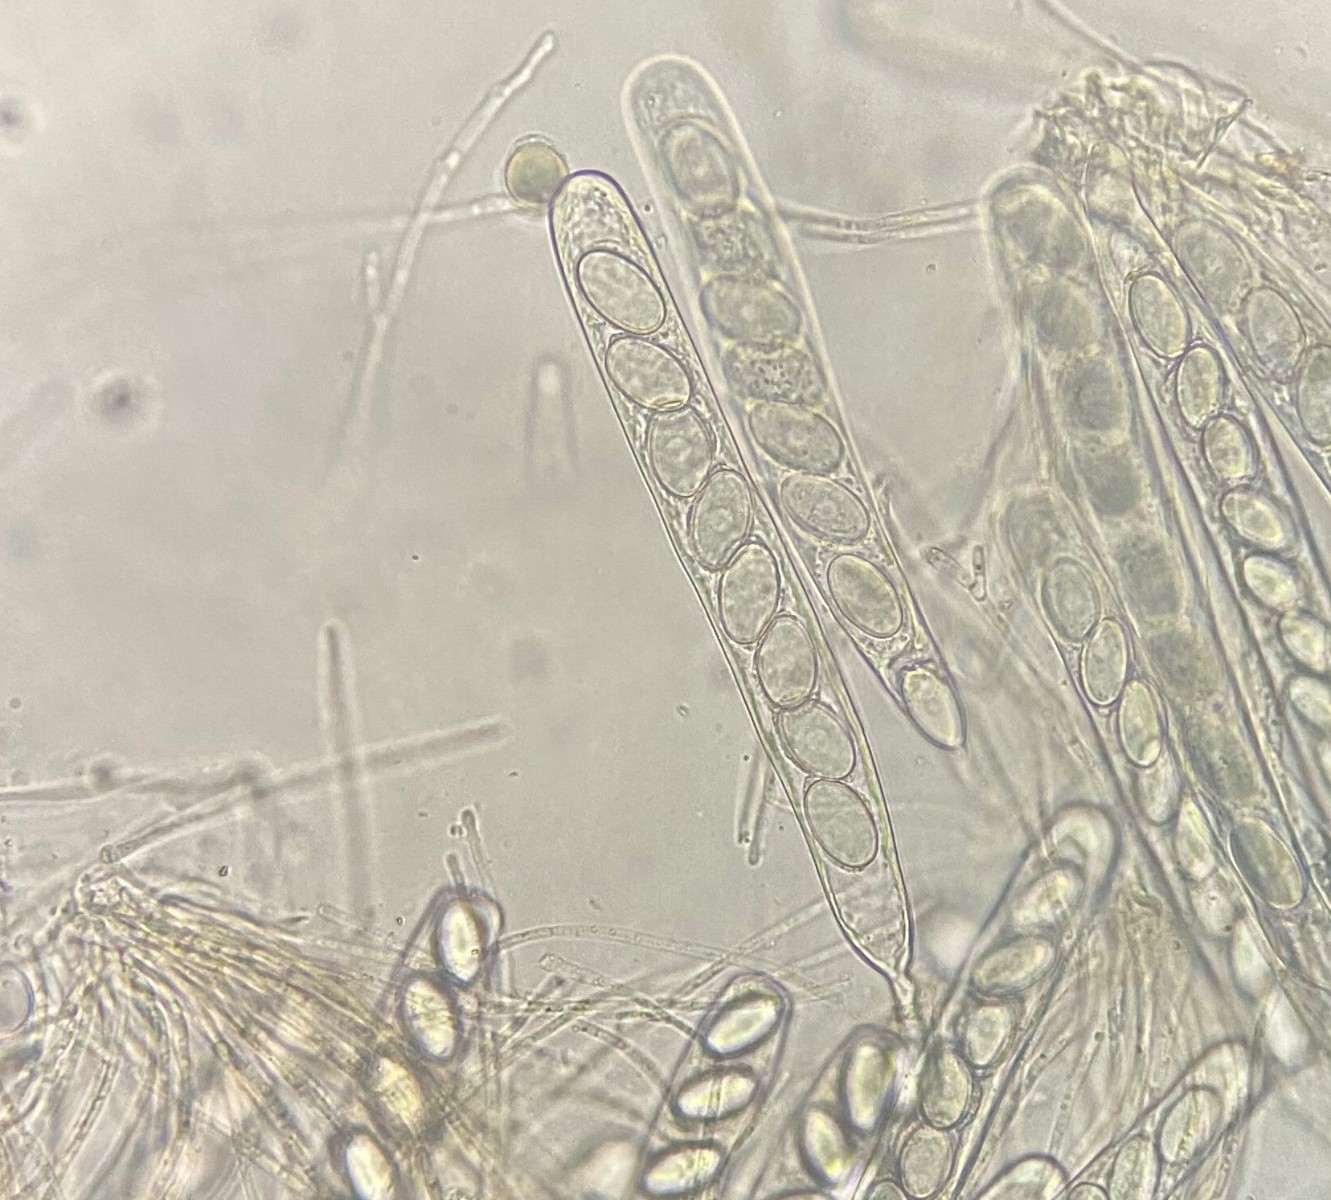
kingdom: Fungi
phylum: Ascomycota
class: Pezizomycetes
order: Pezizales
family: Pyronemataceae
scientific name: Pyronemataceae
